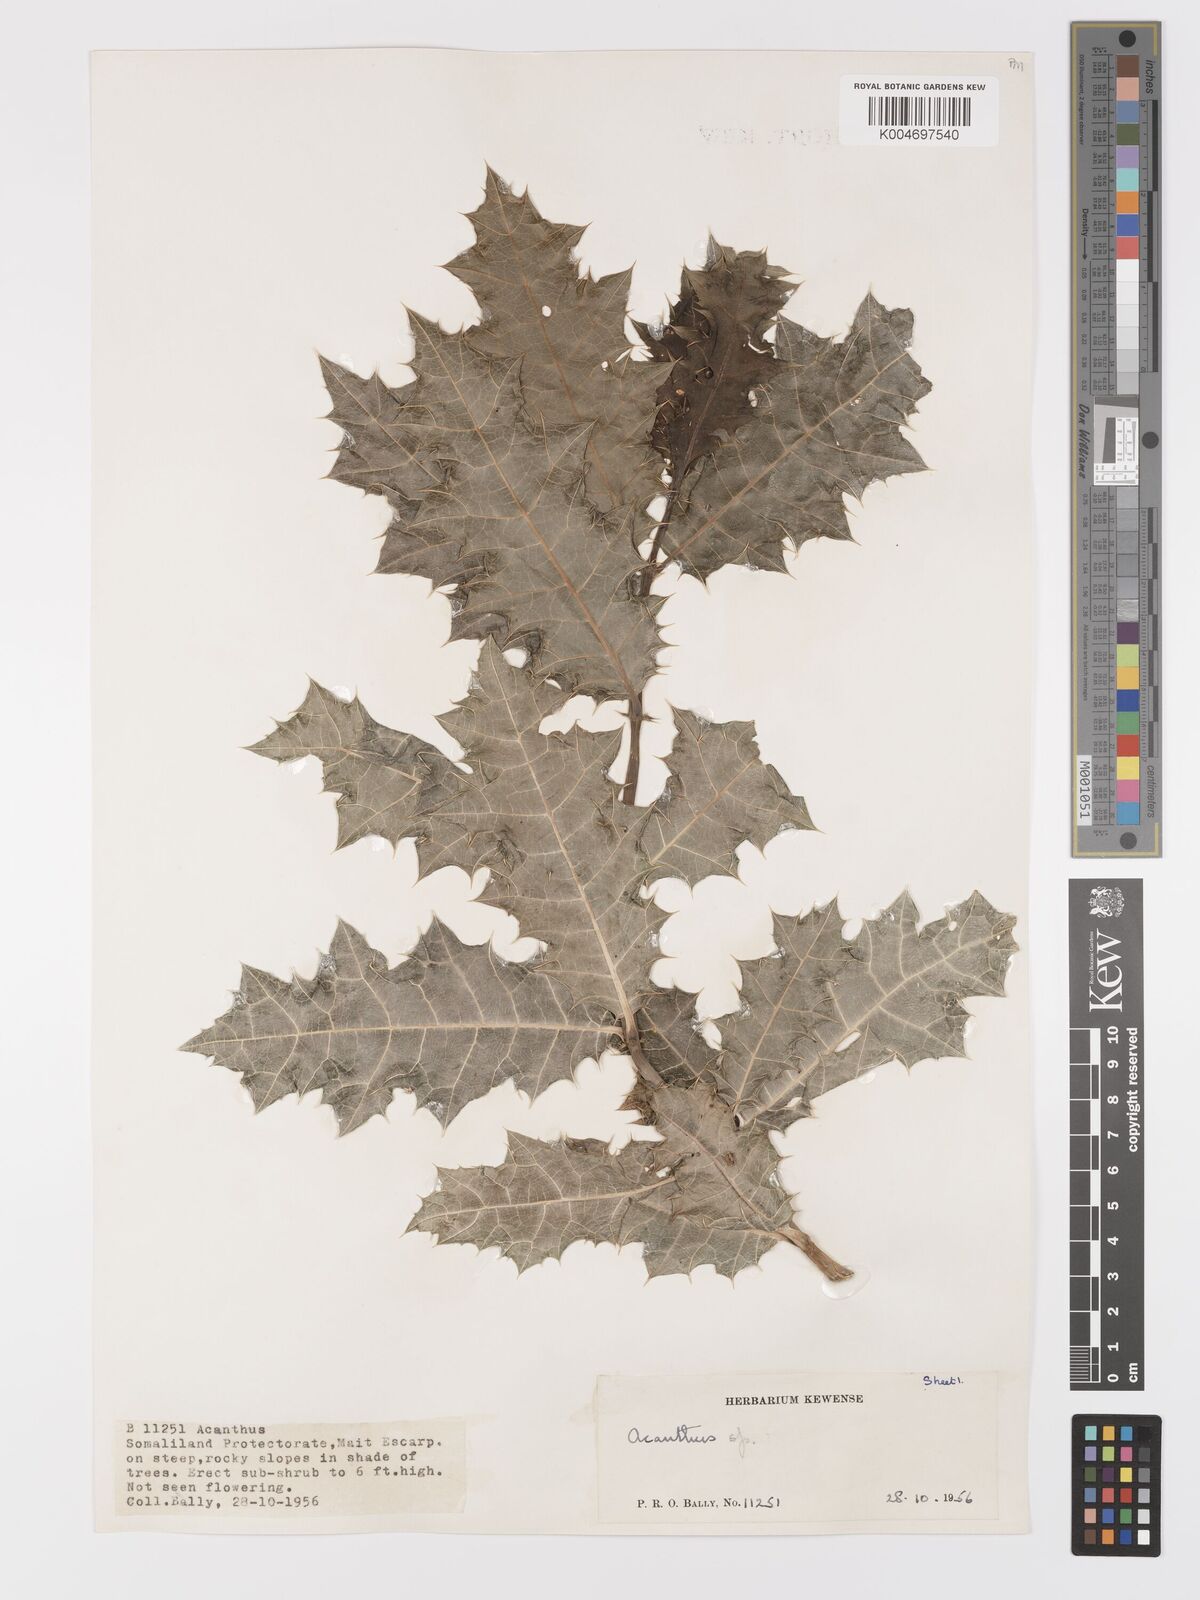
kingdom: Plantae
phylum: Tracheophyta
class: Magnoliopsida
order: Lamiales
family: Acanthaceae
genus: Acanthus
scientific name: Acanthus gaed
